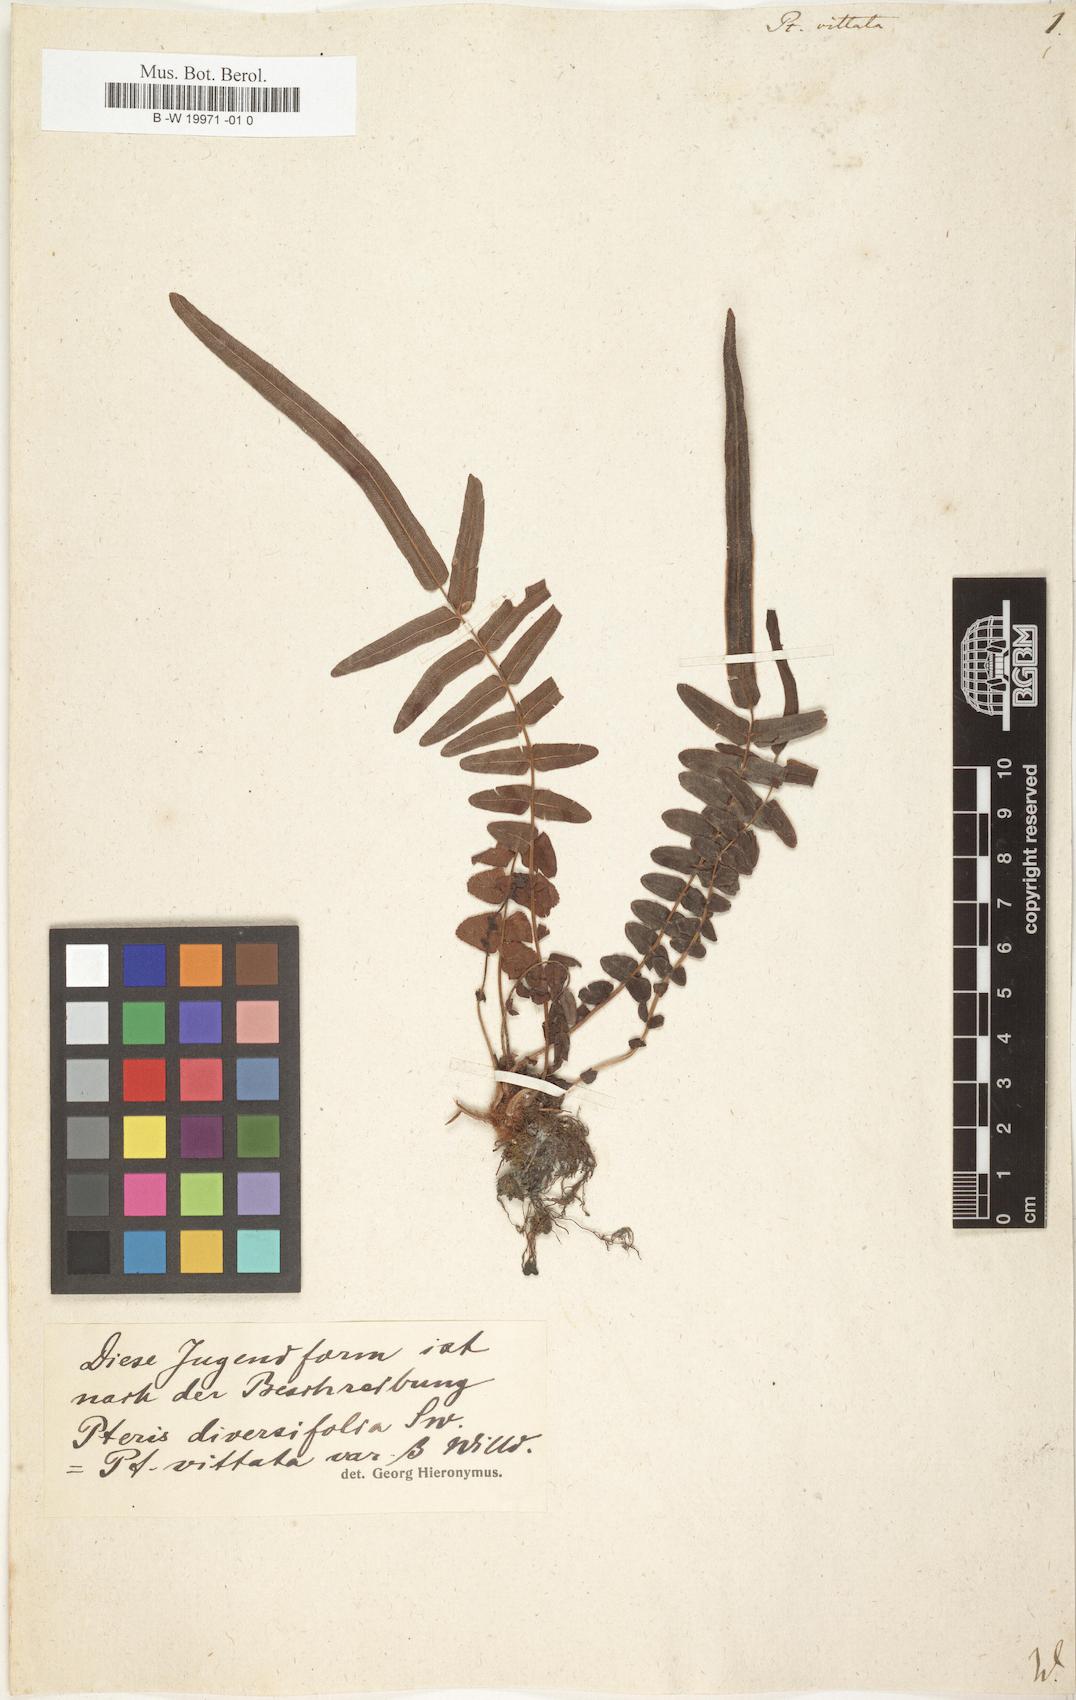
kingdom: Plantae
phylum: Tracheophyta
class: Polypodiopsida
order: Polypodiales
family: Pteridaceae
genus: Pteris
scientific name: Pteris vittata
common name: Ladder brake
